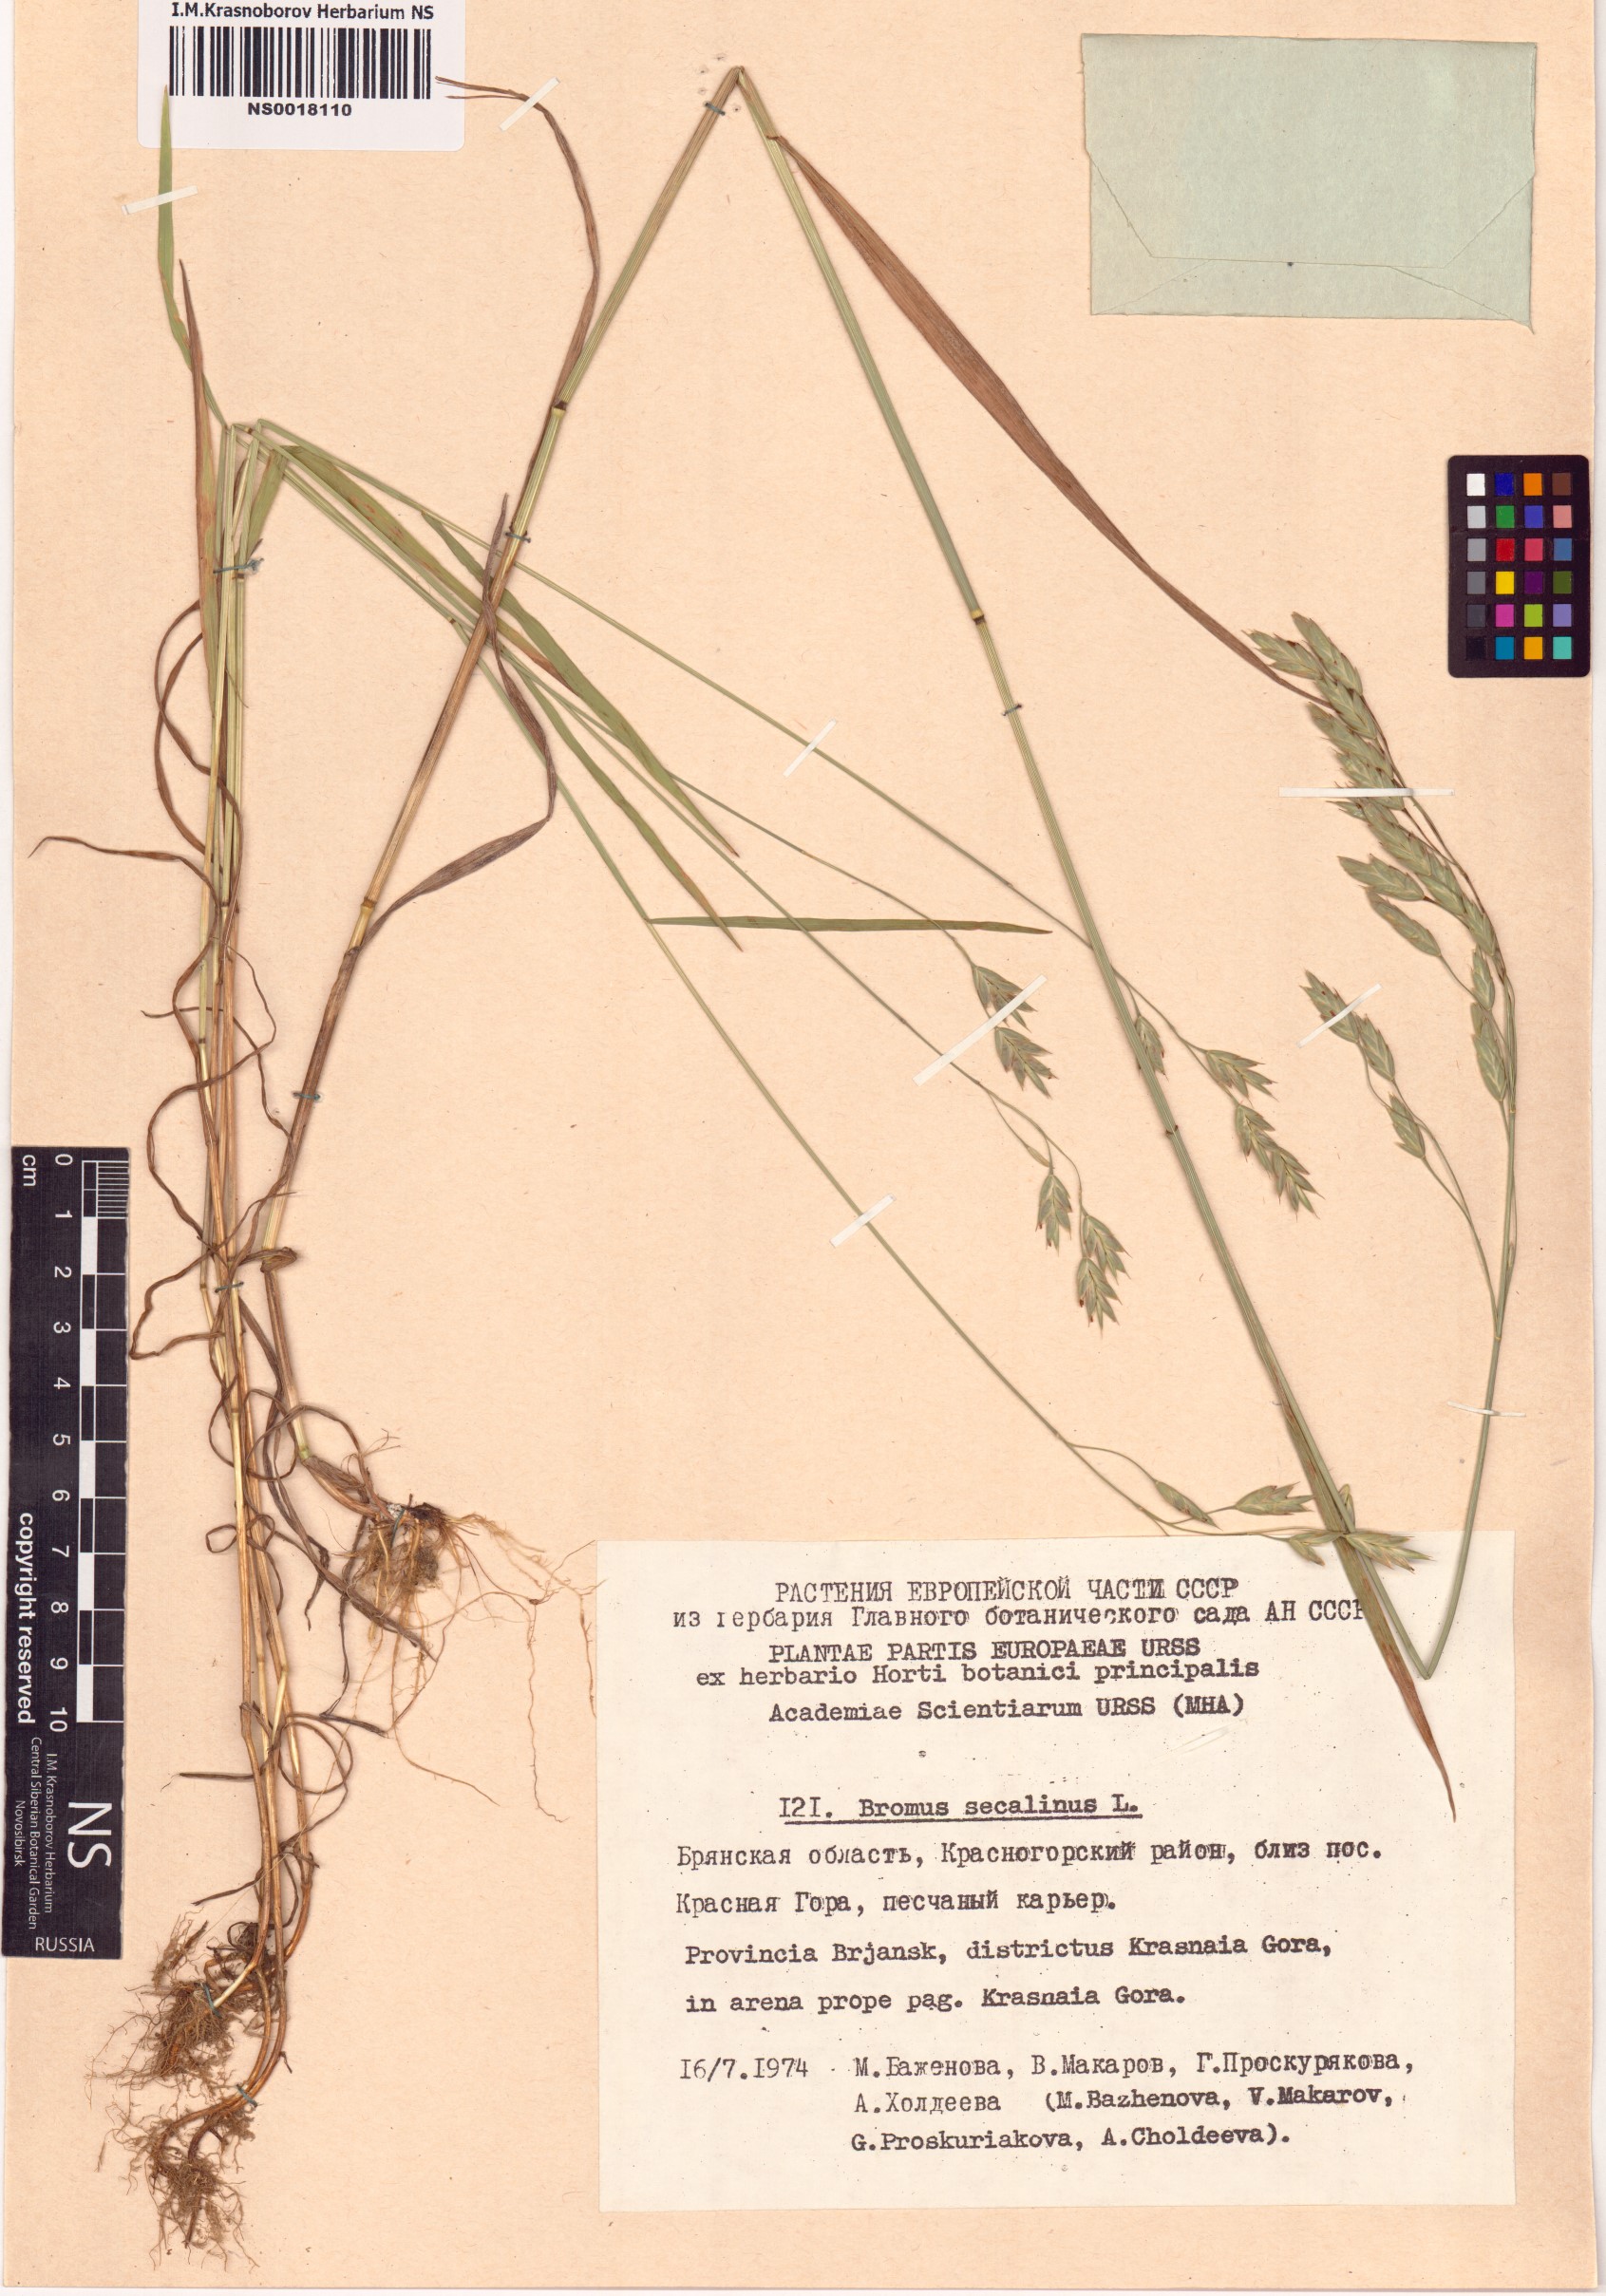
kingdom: Plantae
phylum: Tracheophyta
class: Liliopsida
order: Poales
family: Poaceae
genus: Bromus
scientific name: Bromus secalinus
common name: Rye brome
